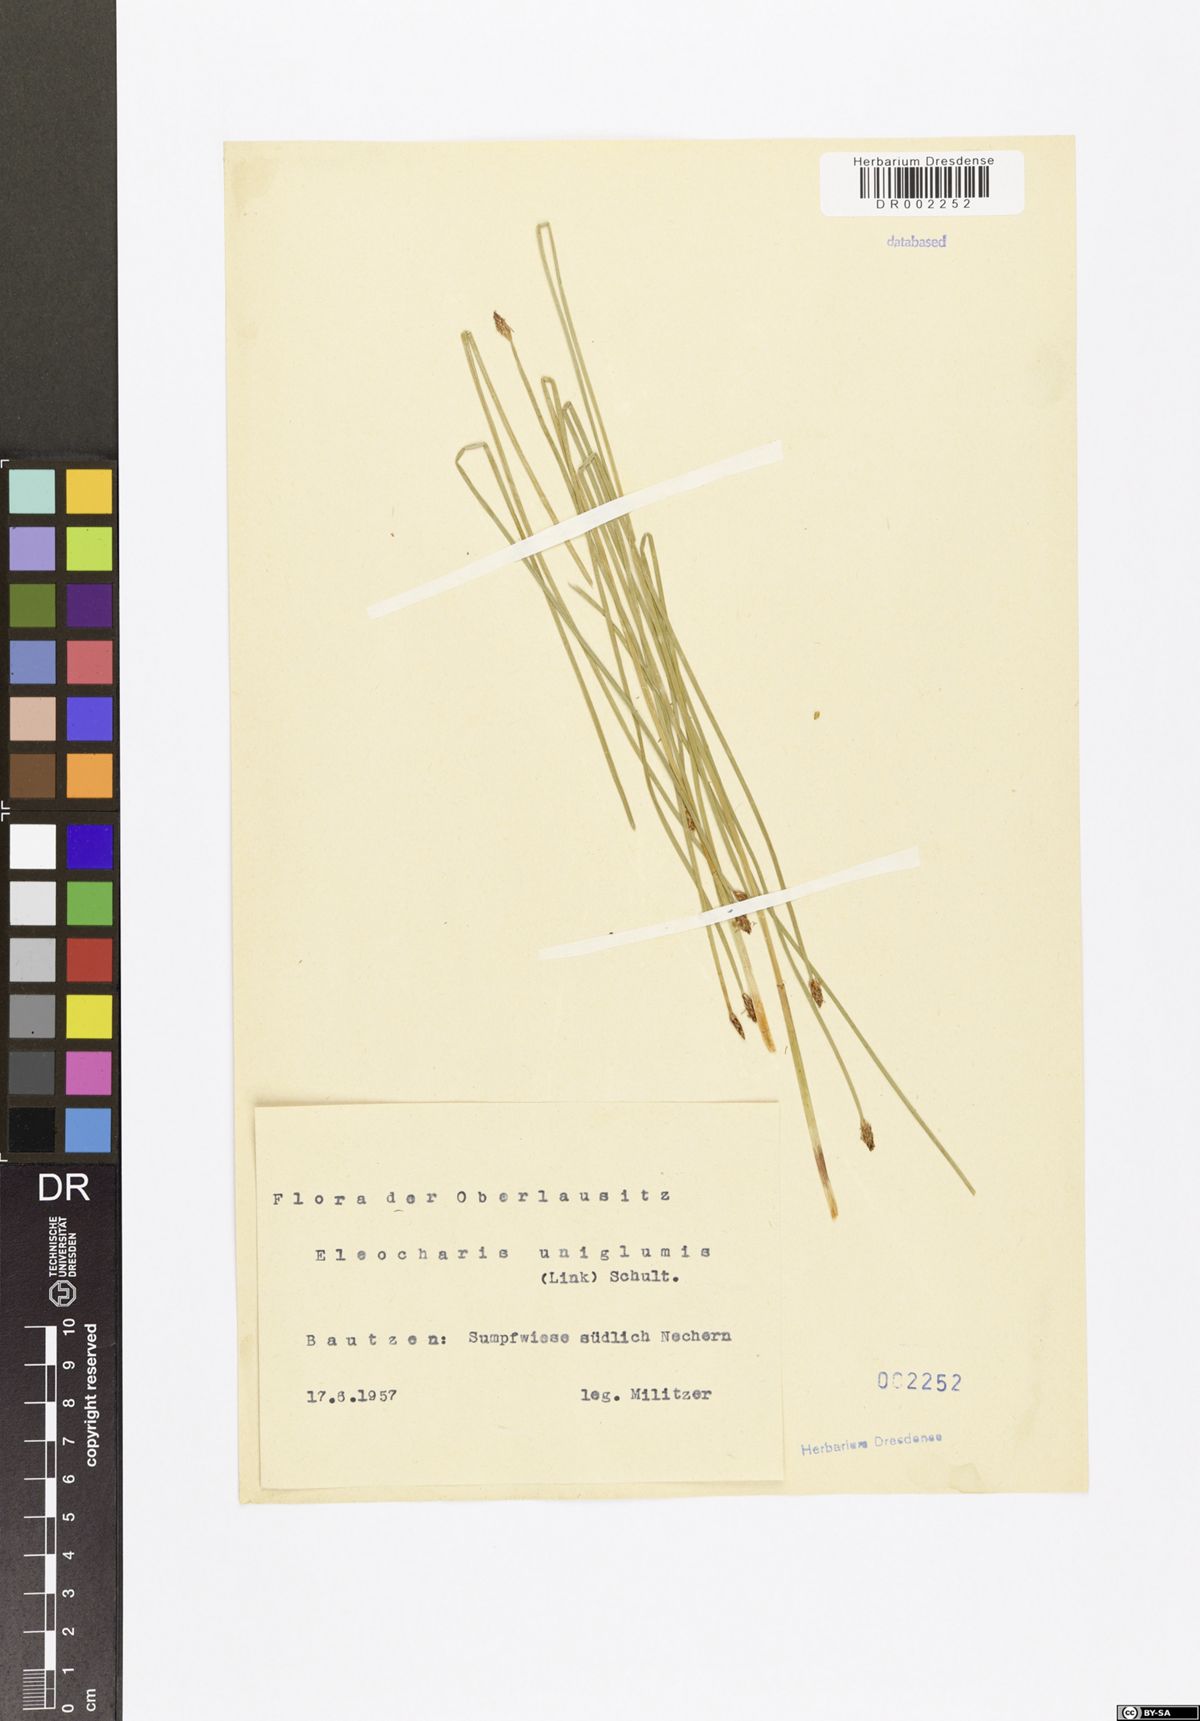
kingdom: Plantae
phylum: Tracheophyta
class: Liliopsida
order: Poales
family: Cyperaceae
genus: Eleocharis
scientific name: Eleocharis uniglumis
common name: Slender spike-rush
